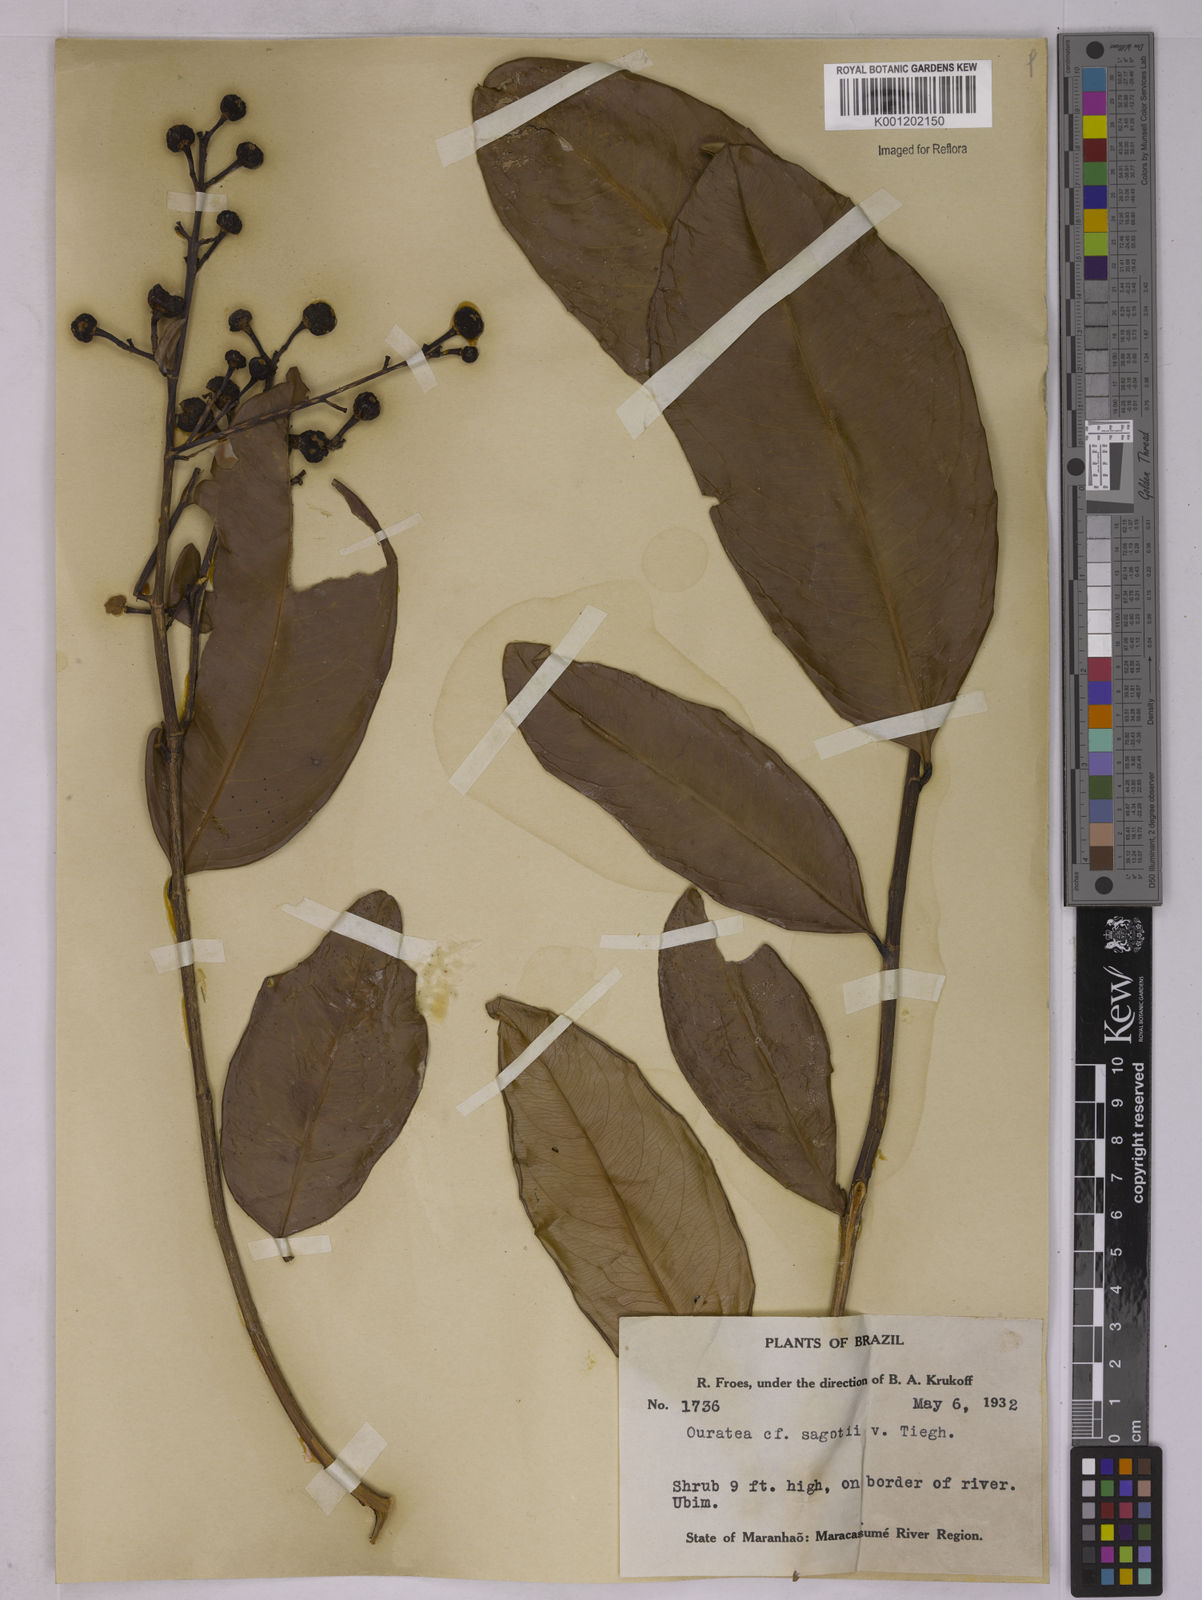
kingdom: Plantae
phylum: Tracheophyta
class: Magnoliopsida
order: Malpighiales
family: Ochnaceae
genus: Elvasia
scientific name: Elvasia elvasioides
